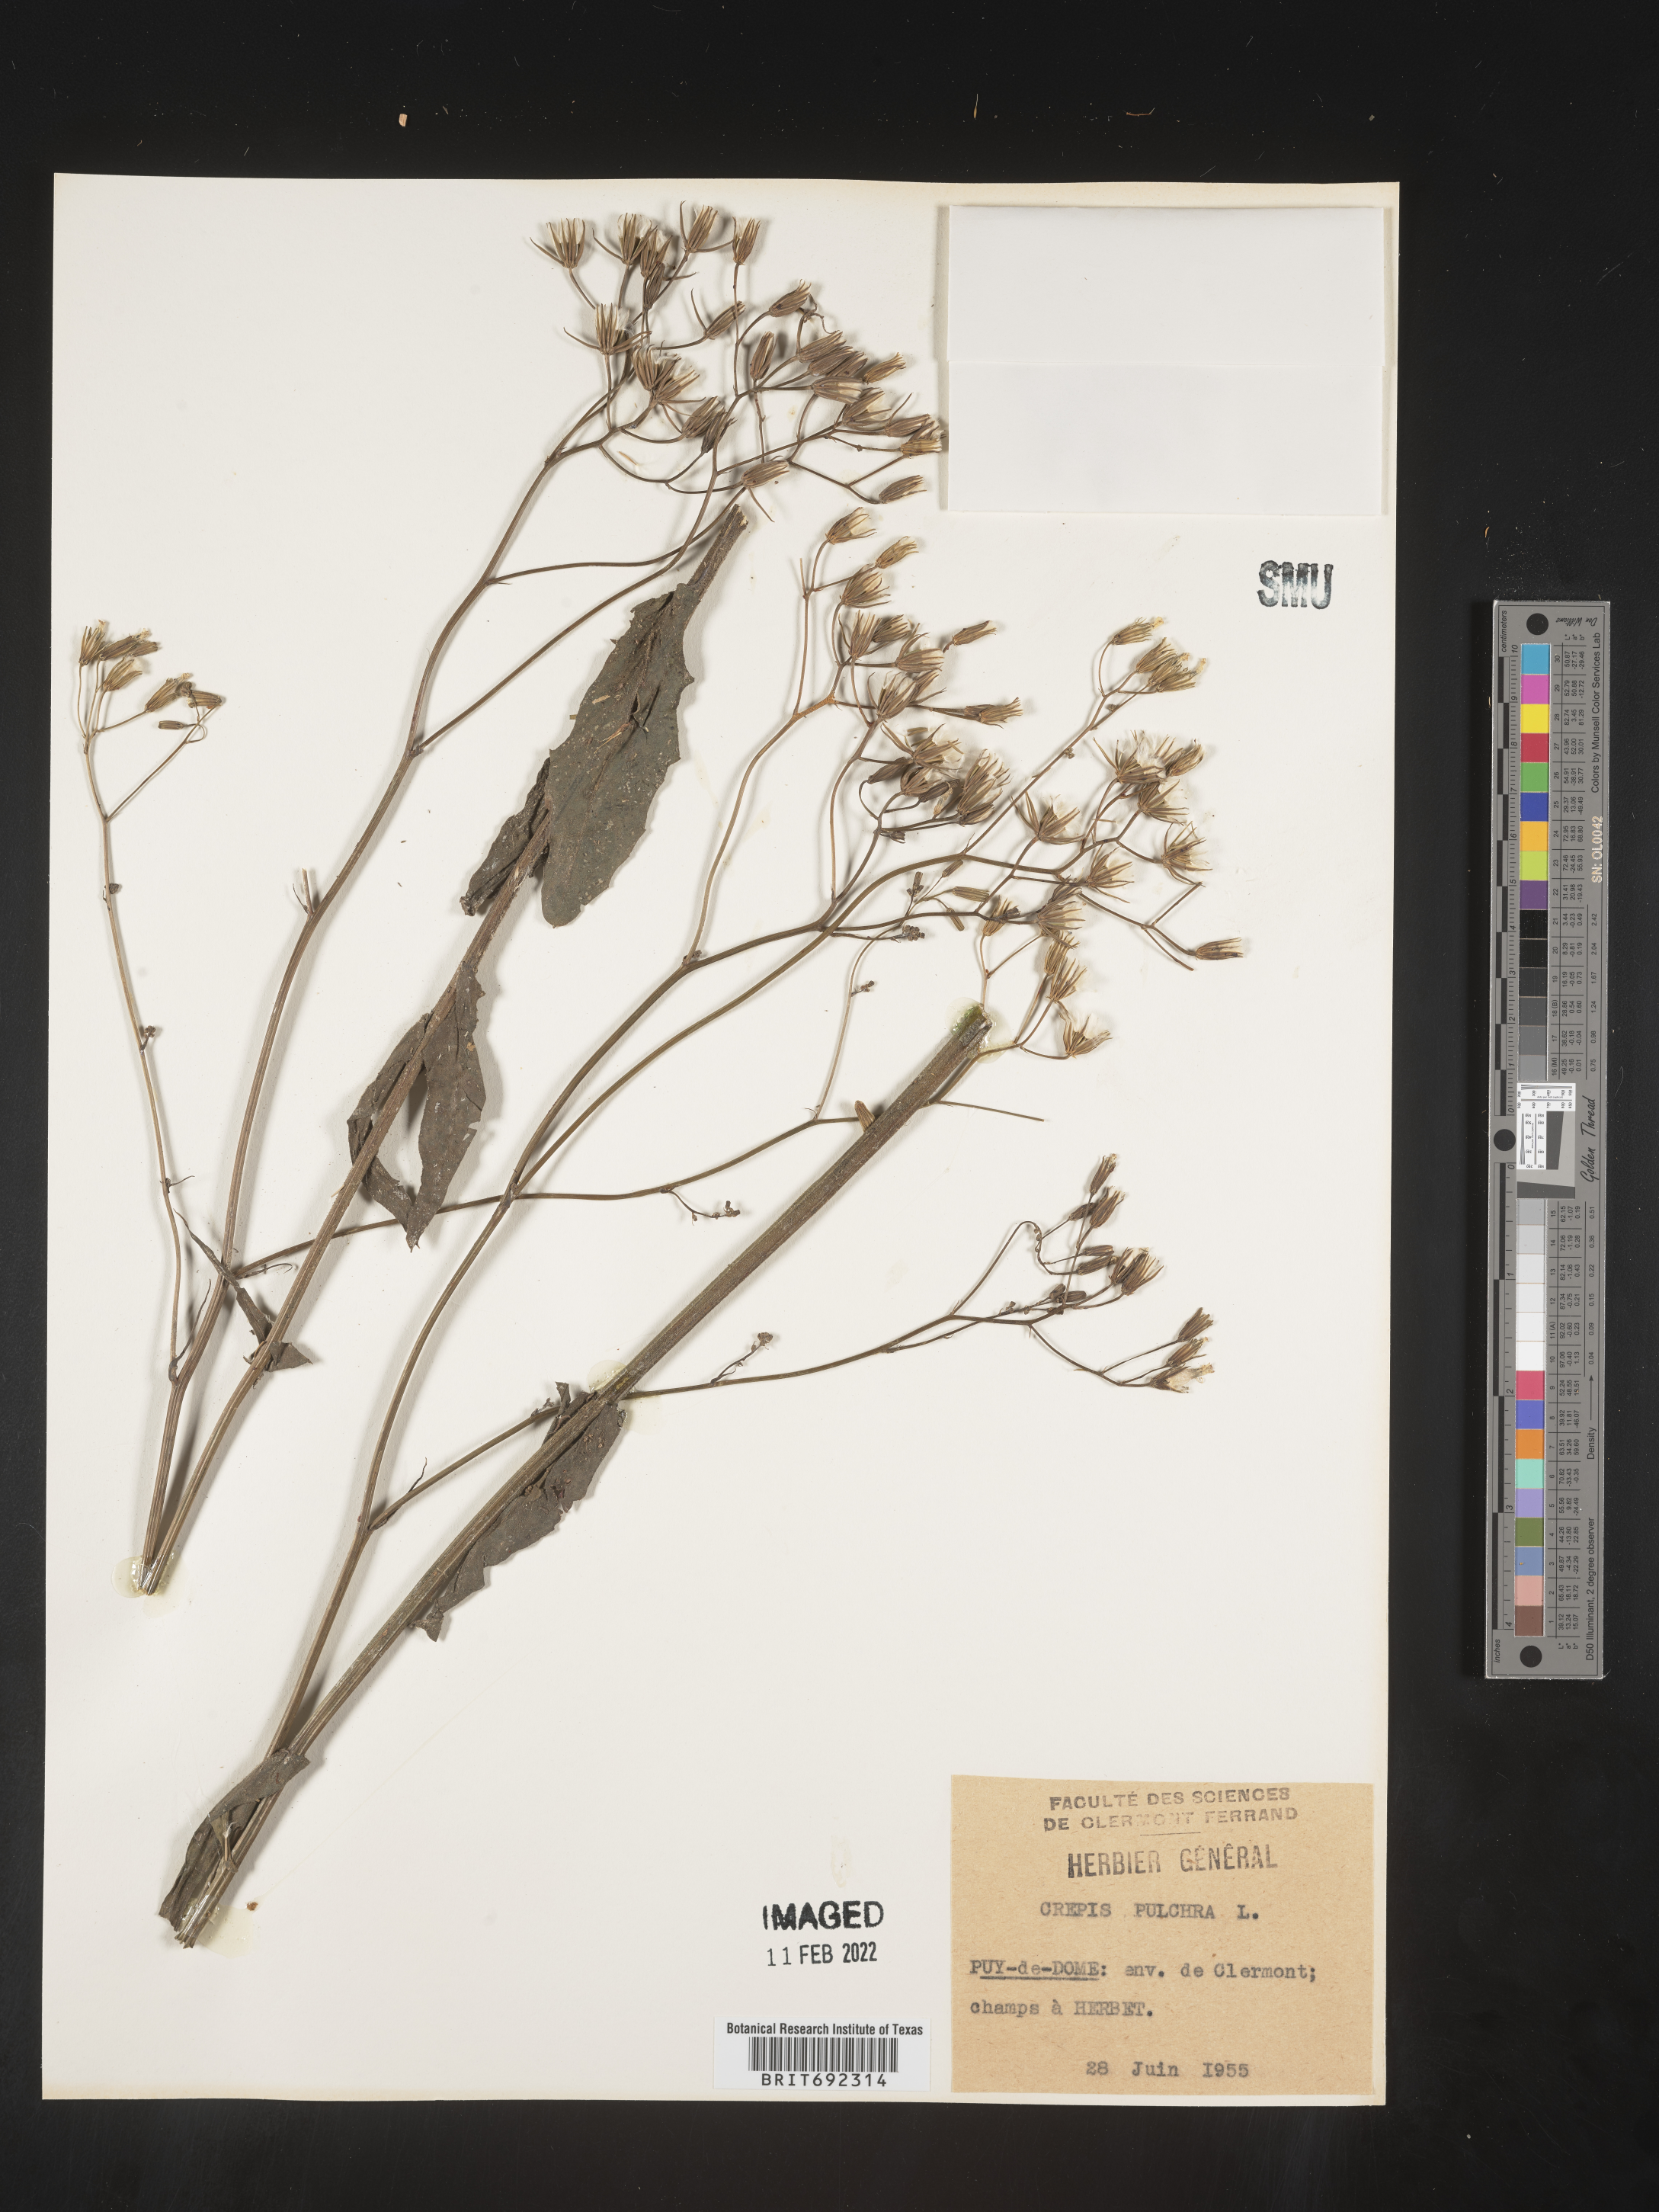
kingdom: Plantae
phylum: Tracheophyta
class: Magnoliopsida
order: Asterales
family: Asteraceae
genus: Crepis
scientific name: Crepis
